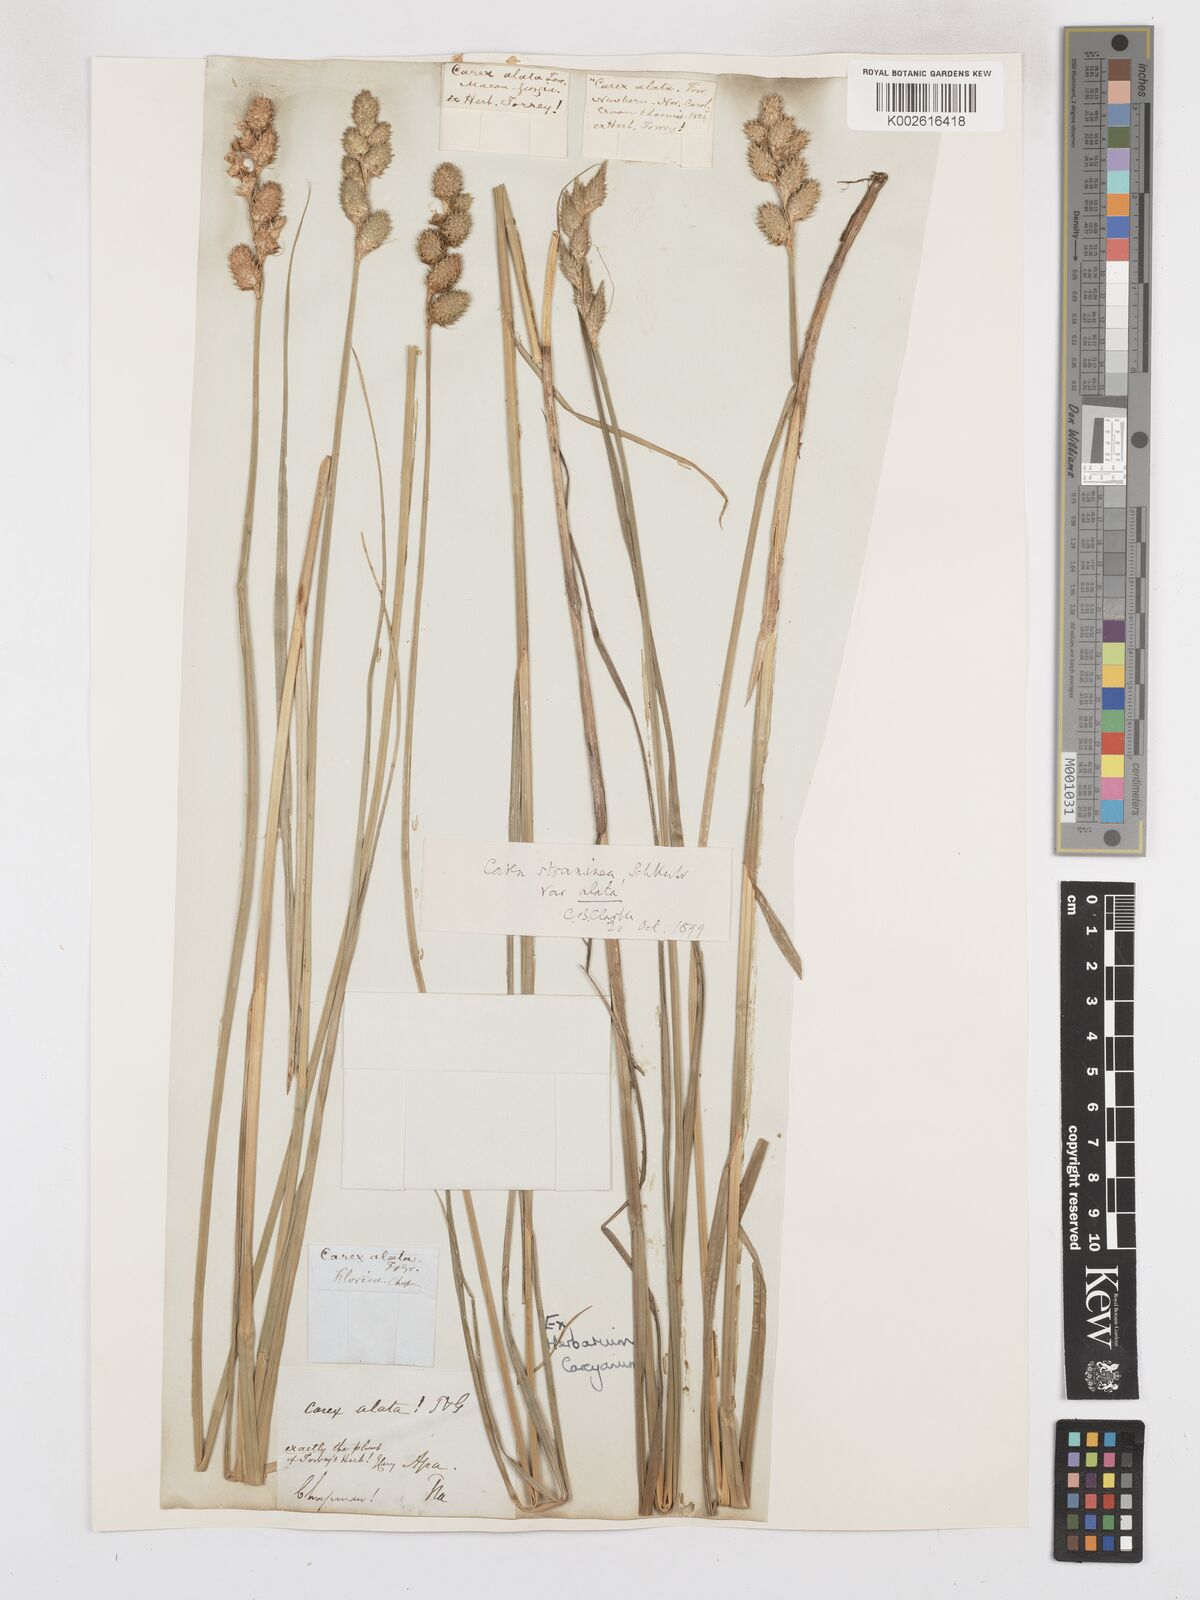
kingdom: Plantae
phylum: Tracheophyta
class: Liliopsida
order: Poales
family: Cyperaceae
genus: Carex
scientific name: Carex tribuloides
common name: Blunt broom sedge
